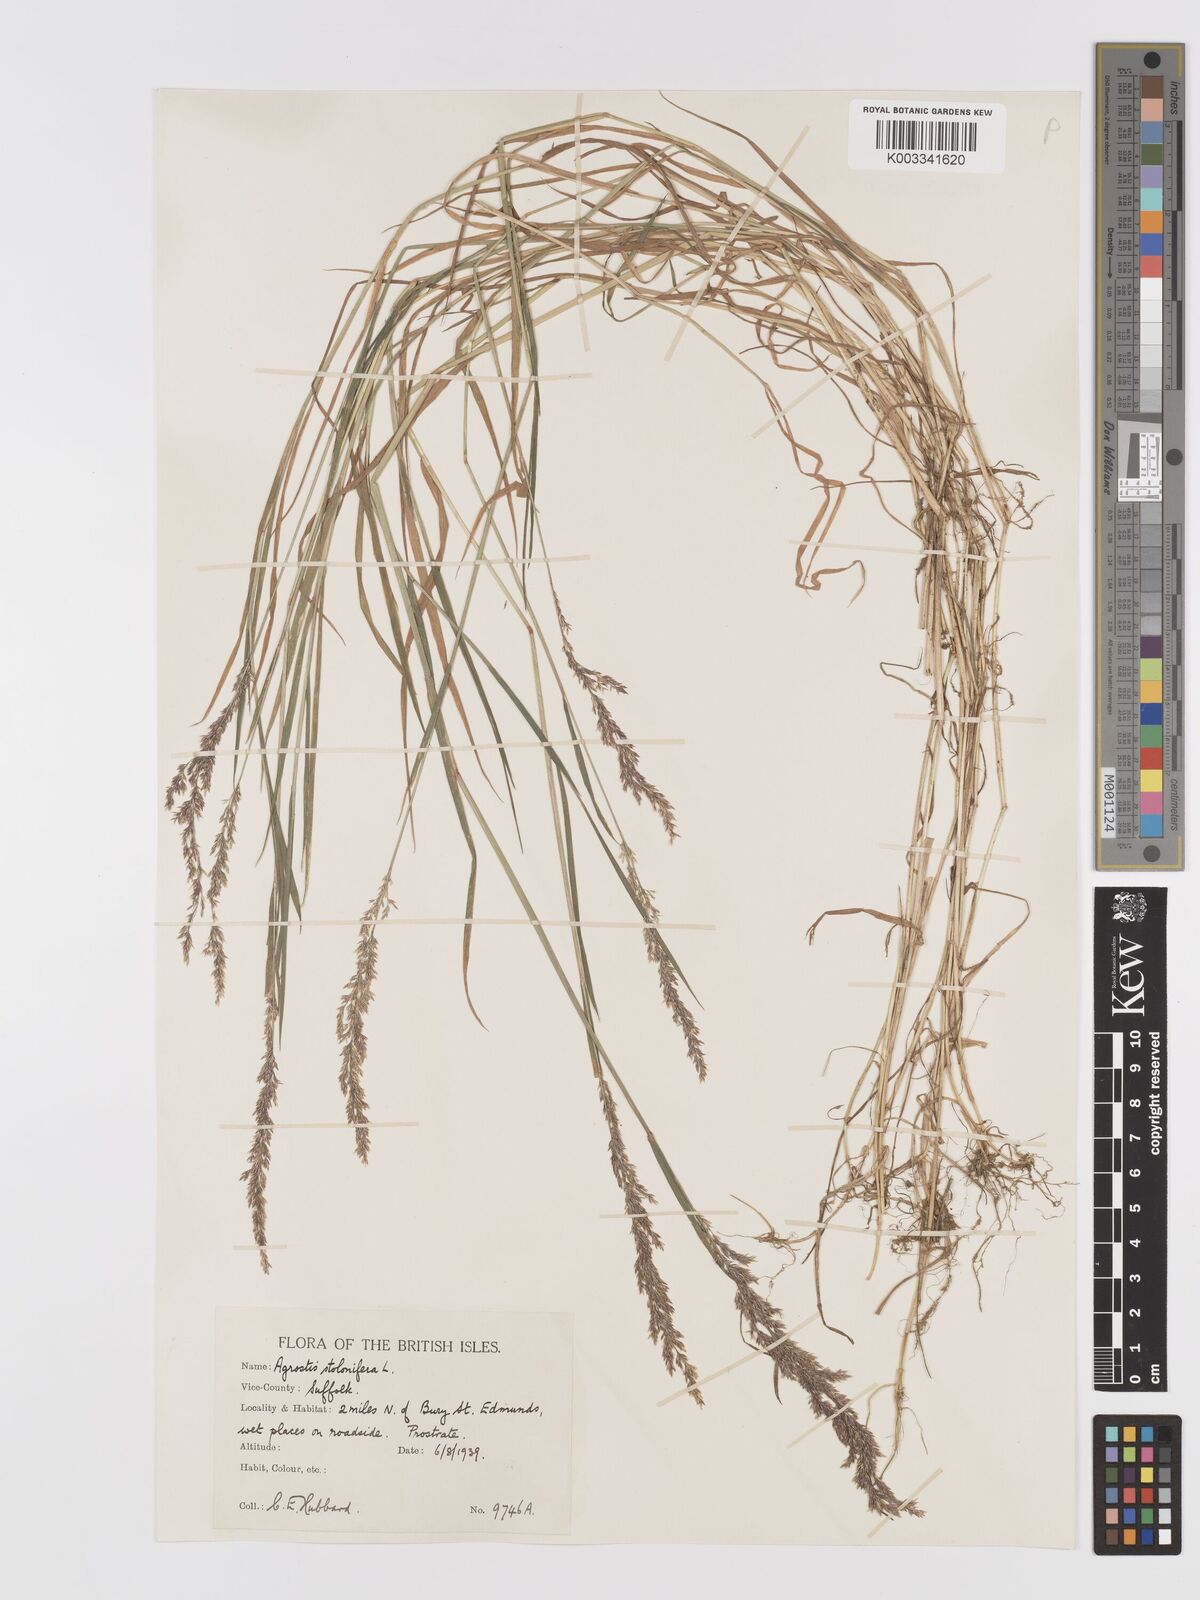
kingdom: Plantae
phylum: Tracheophyta
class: Liliopsida
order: Poales
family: Poaceae
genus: Agrostis
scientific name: Agrostis stolonifera
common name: Creeping bentgrass
